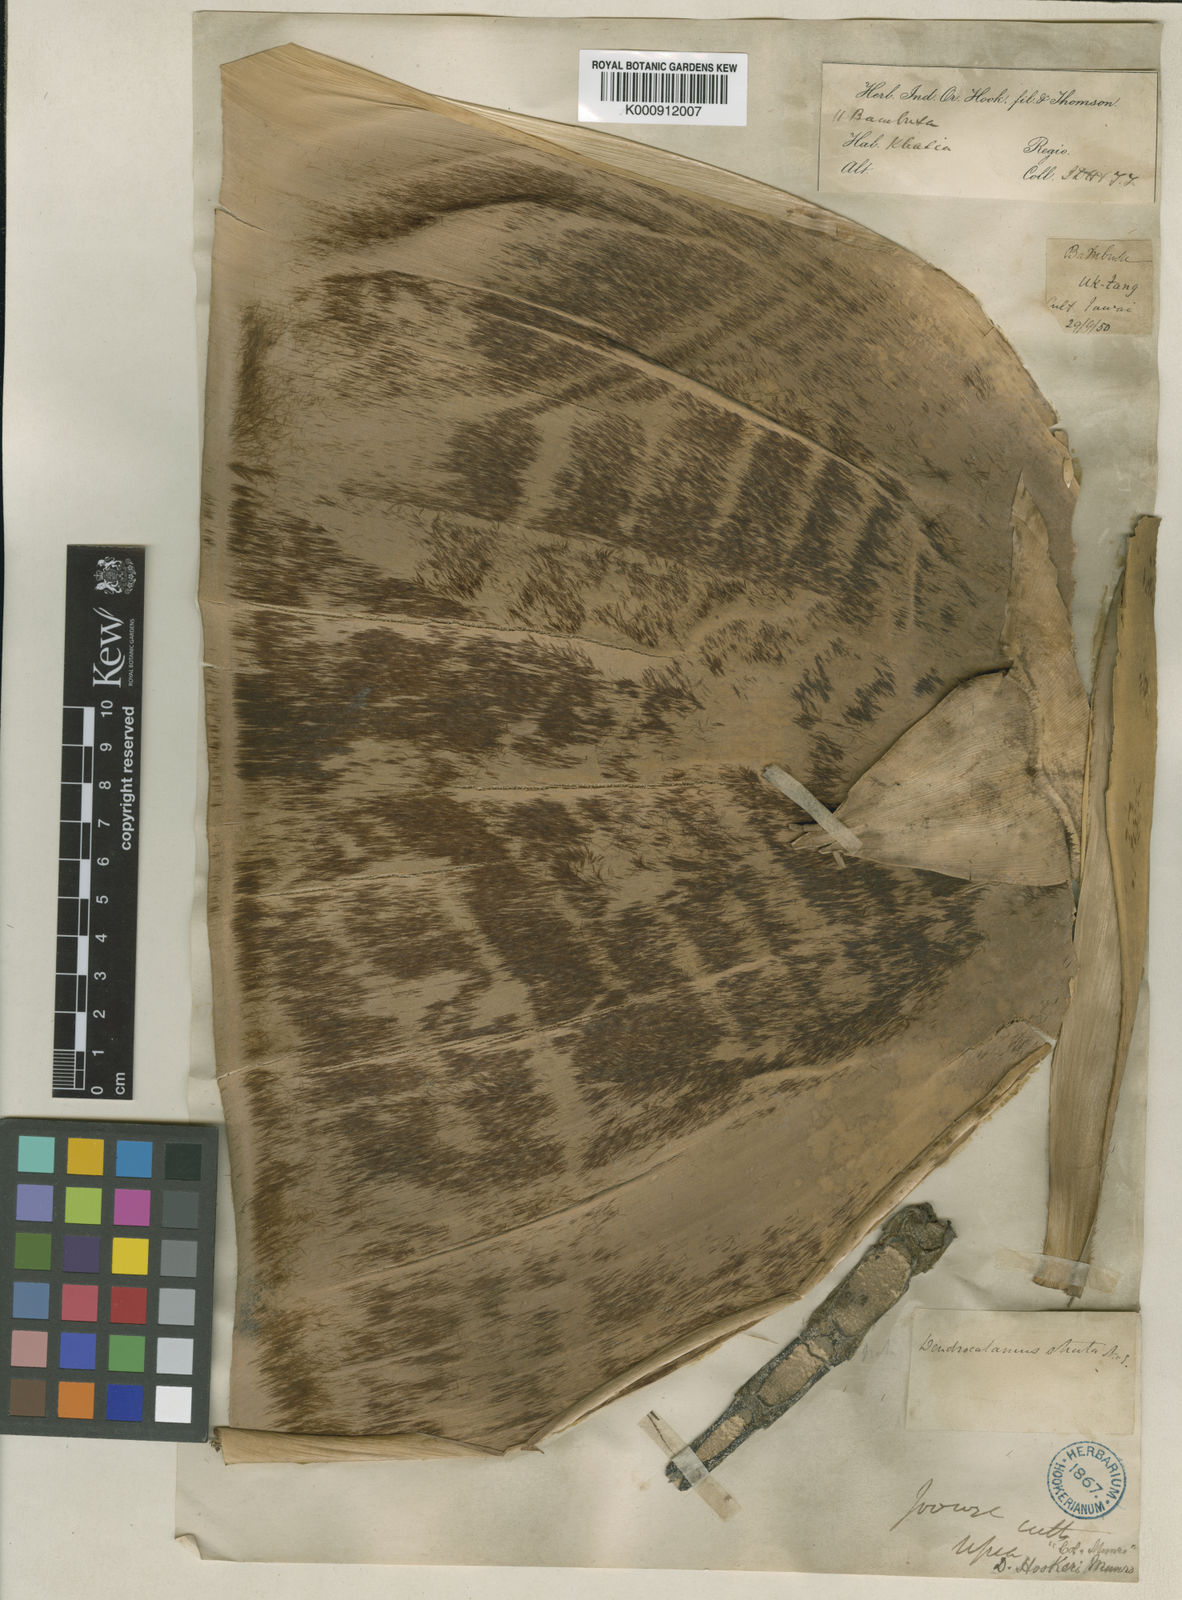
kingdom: Plantae
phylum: Tracheophyta
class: Liliopsida
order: Poales
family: Poaceae
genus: Dendrocalamus
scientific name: Dendrocalamus hookeri
